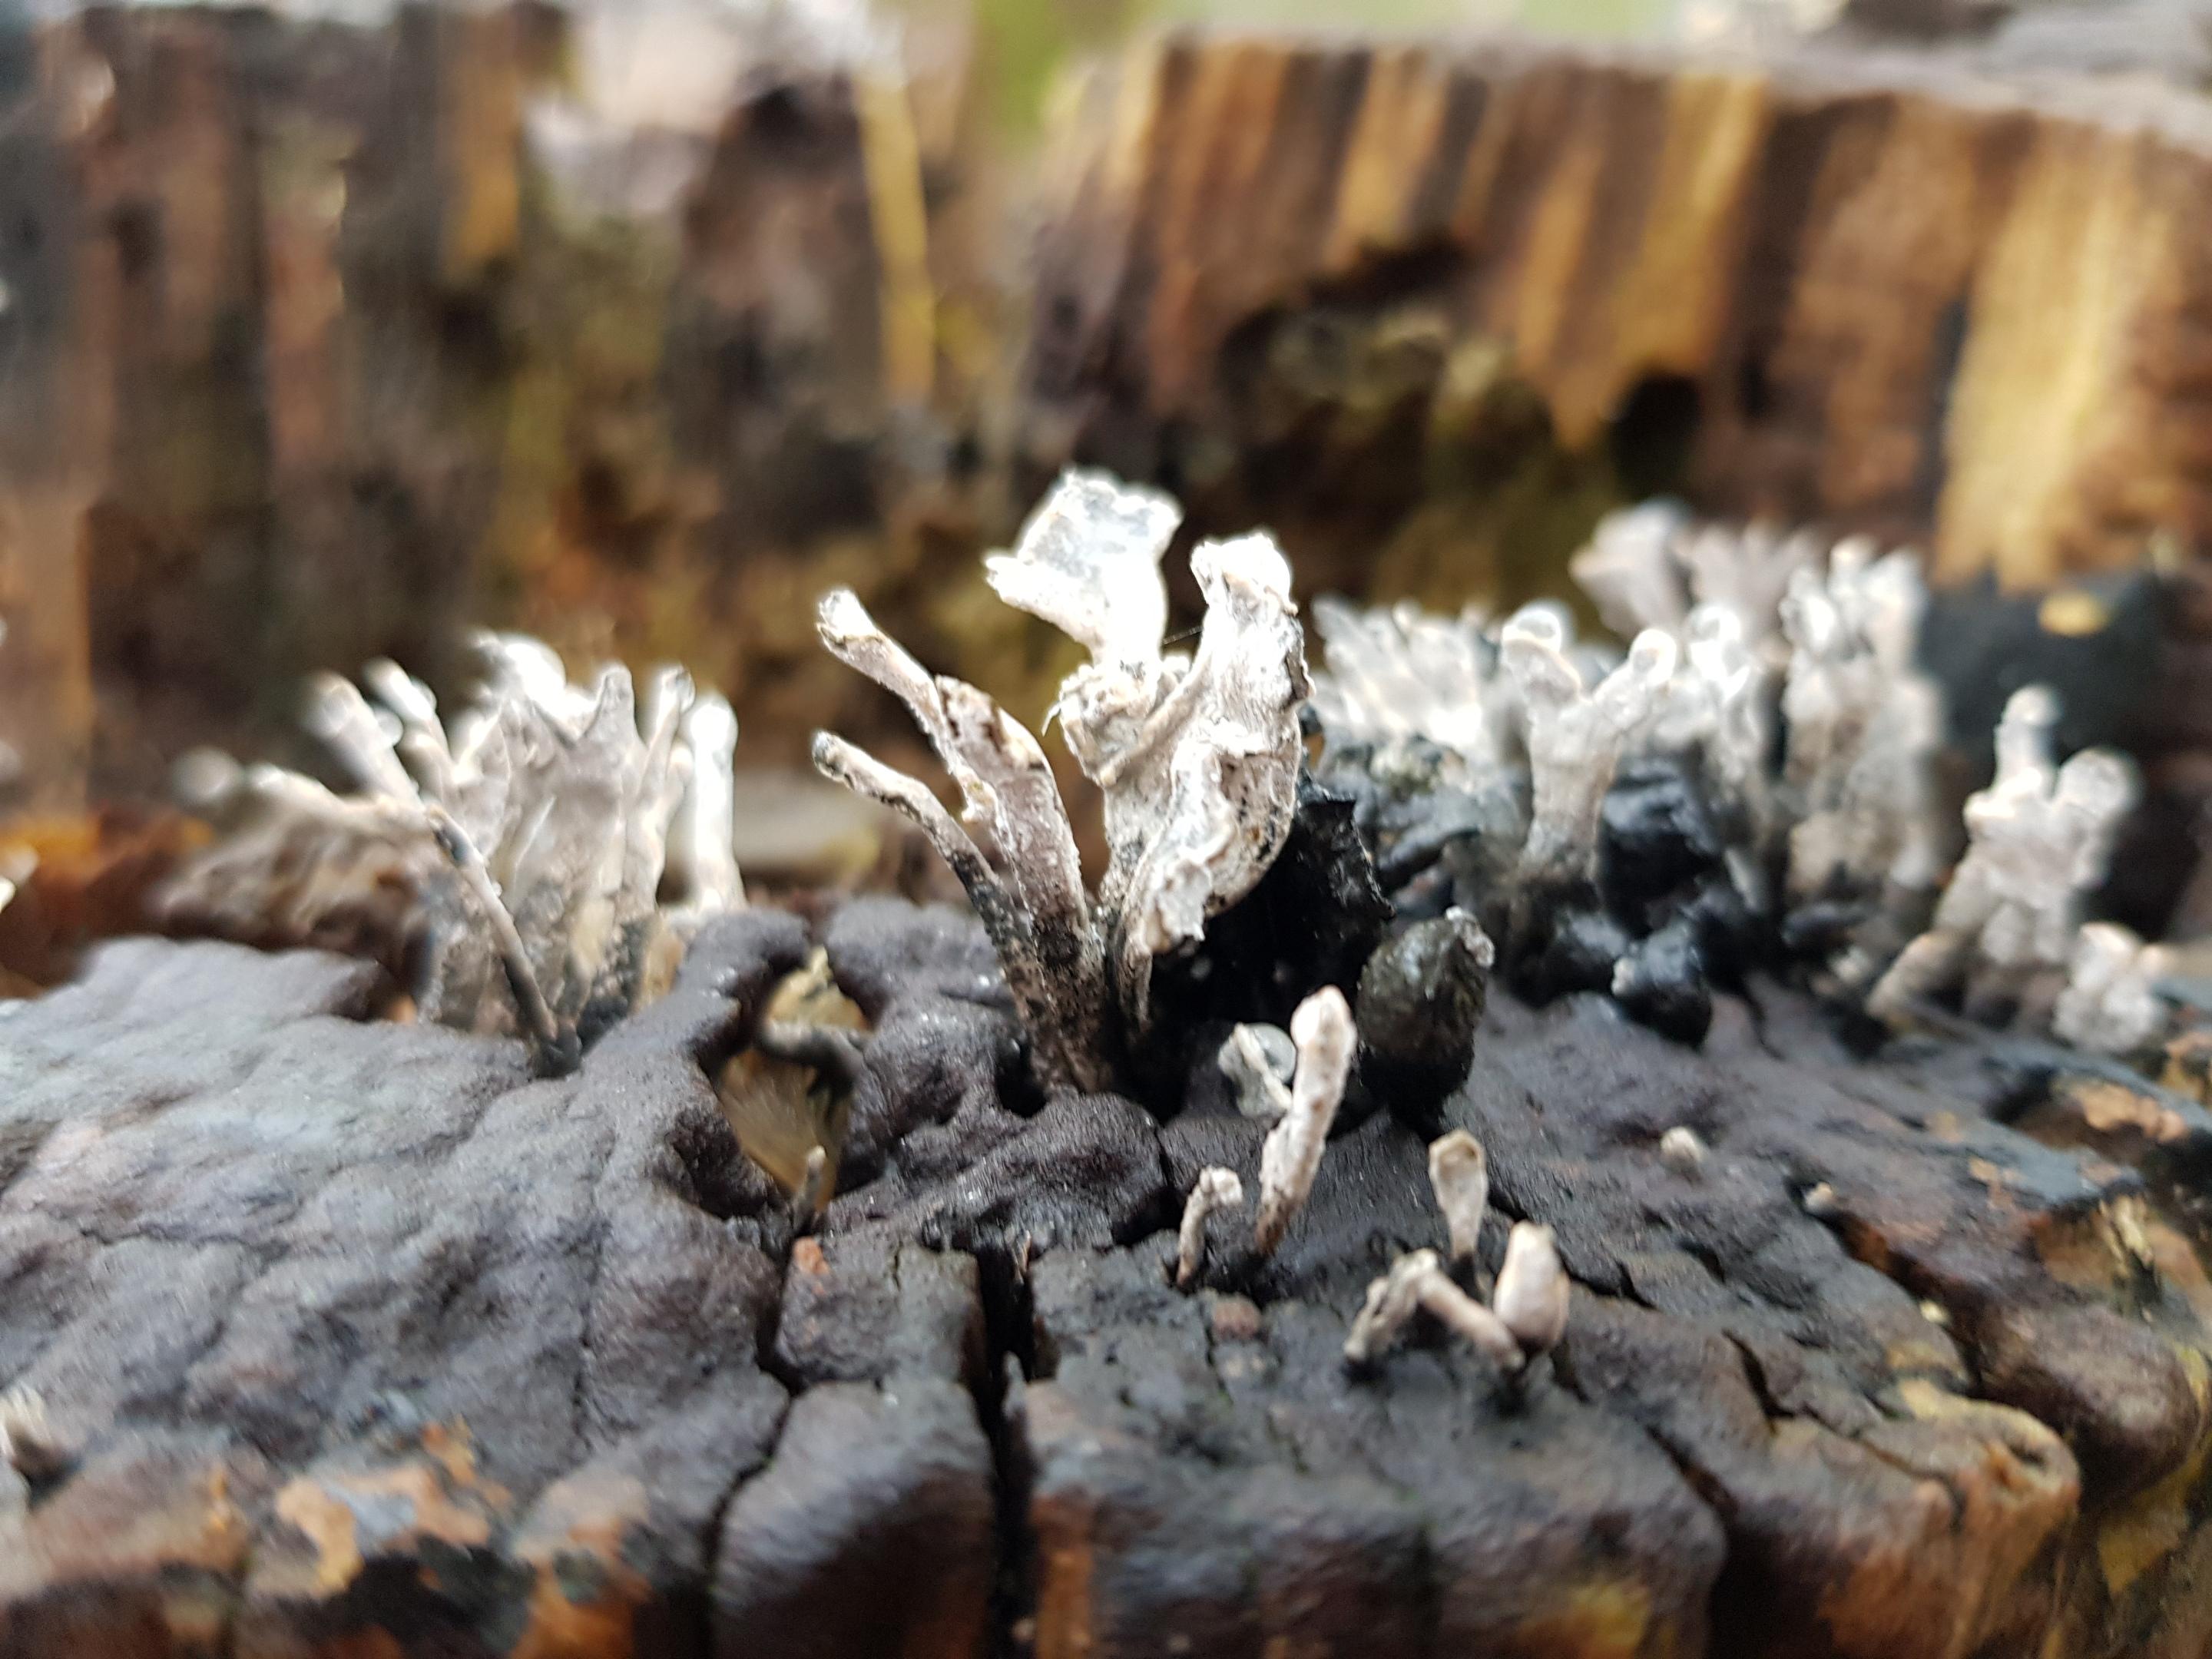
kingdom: Fungi
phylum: Ascomycota
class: Sordariomycetes
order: Xylariales
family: Xylariaceae
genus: Xylaria
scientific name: Xylaria hypoxylon
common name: grenet stødsvamp
